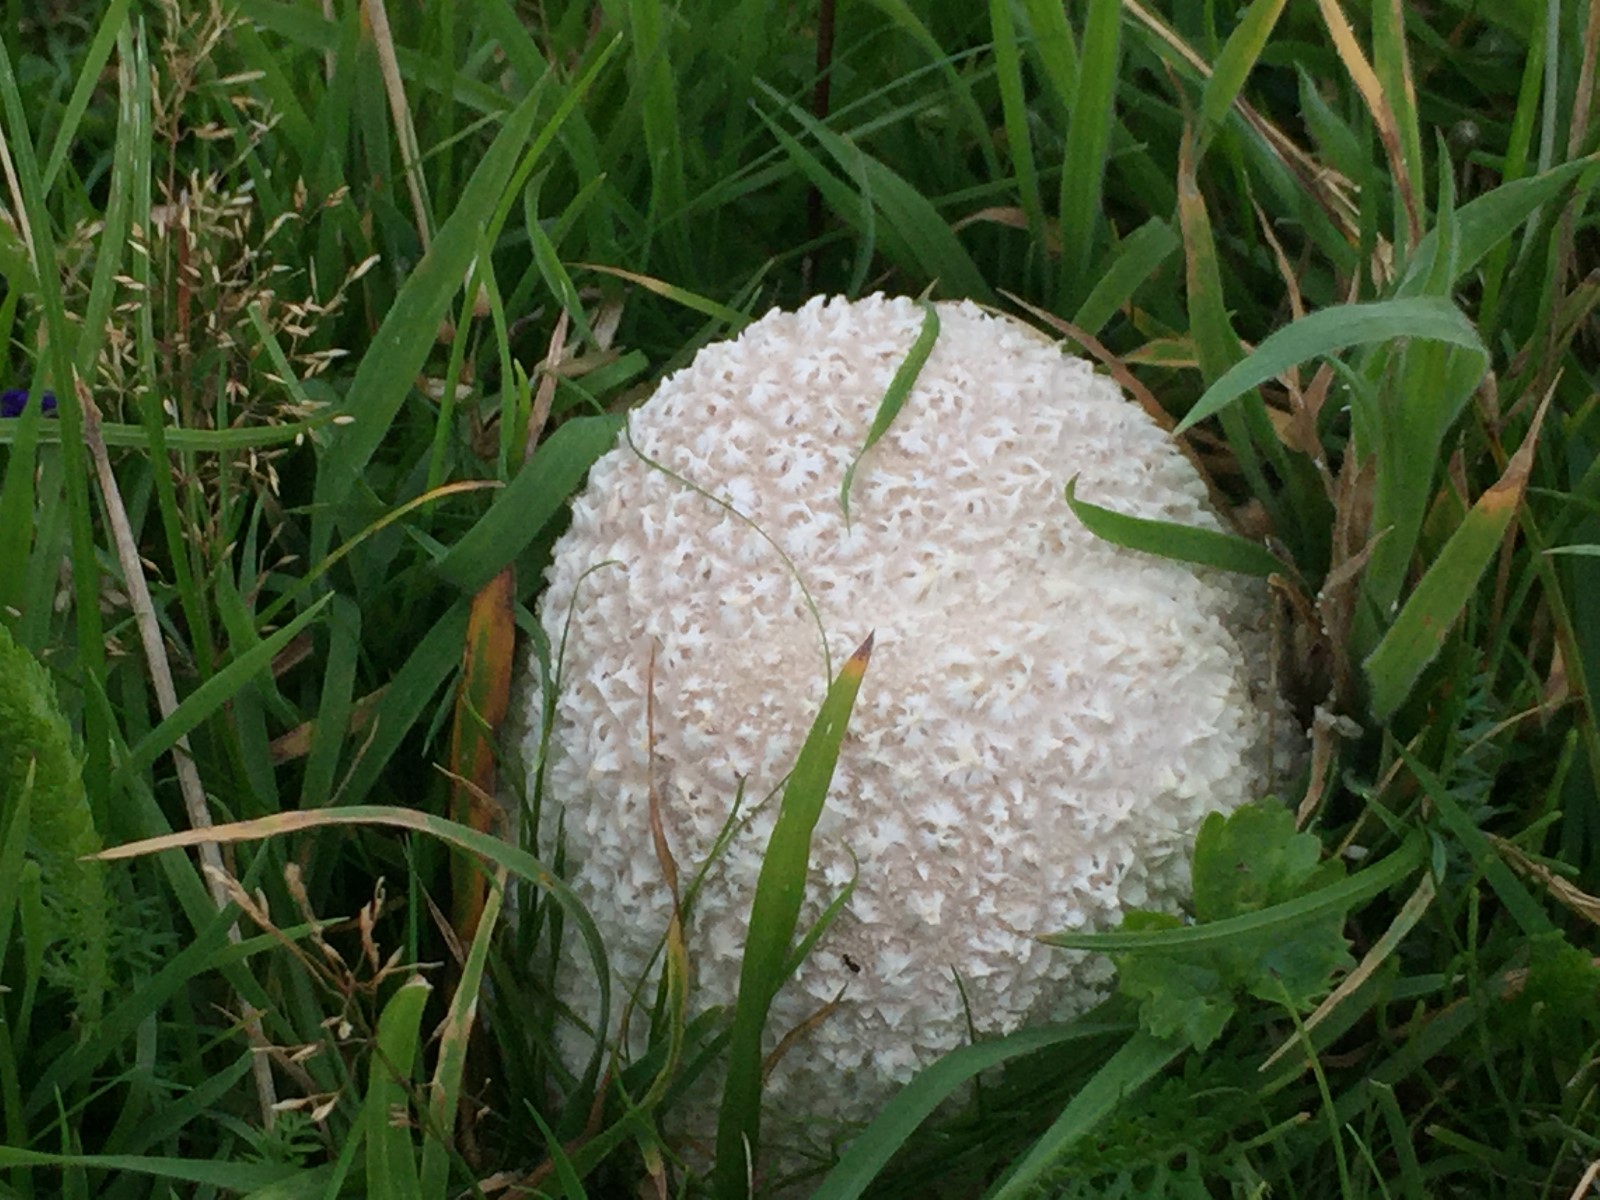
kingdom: Fungi
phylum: Basidiomycota
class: Agaricomycetes
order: Agaricales
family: Lycoperdaceae
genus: Bovistella
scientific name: Bovistella utriformis
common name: skællet støvbold
